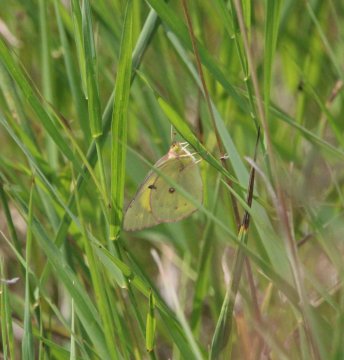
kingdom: Animalia
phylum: Arthropoda
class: Insecta
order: Lepidoptera
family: Pieridae
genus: Colias
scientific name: Colias philodice
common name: Clouded Sulphur
